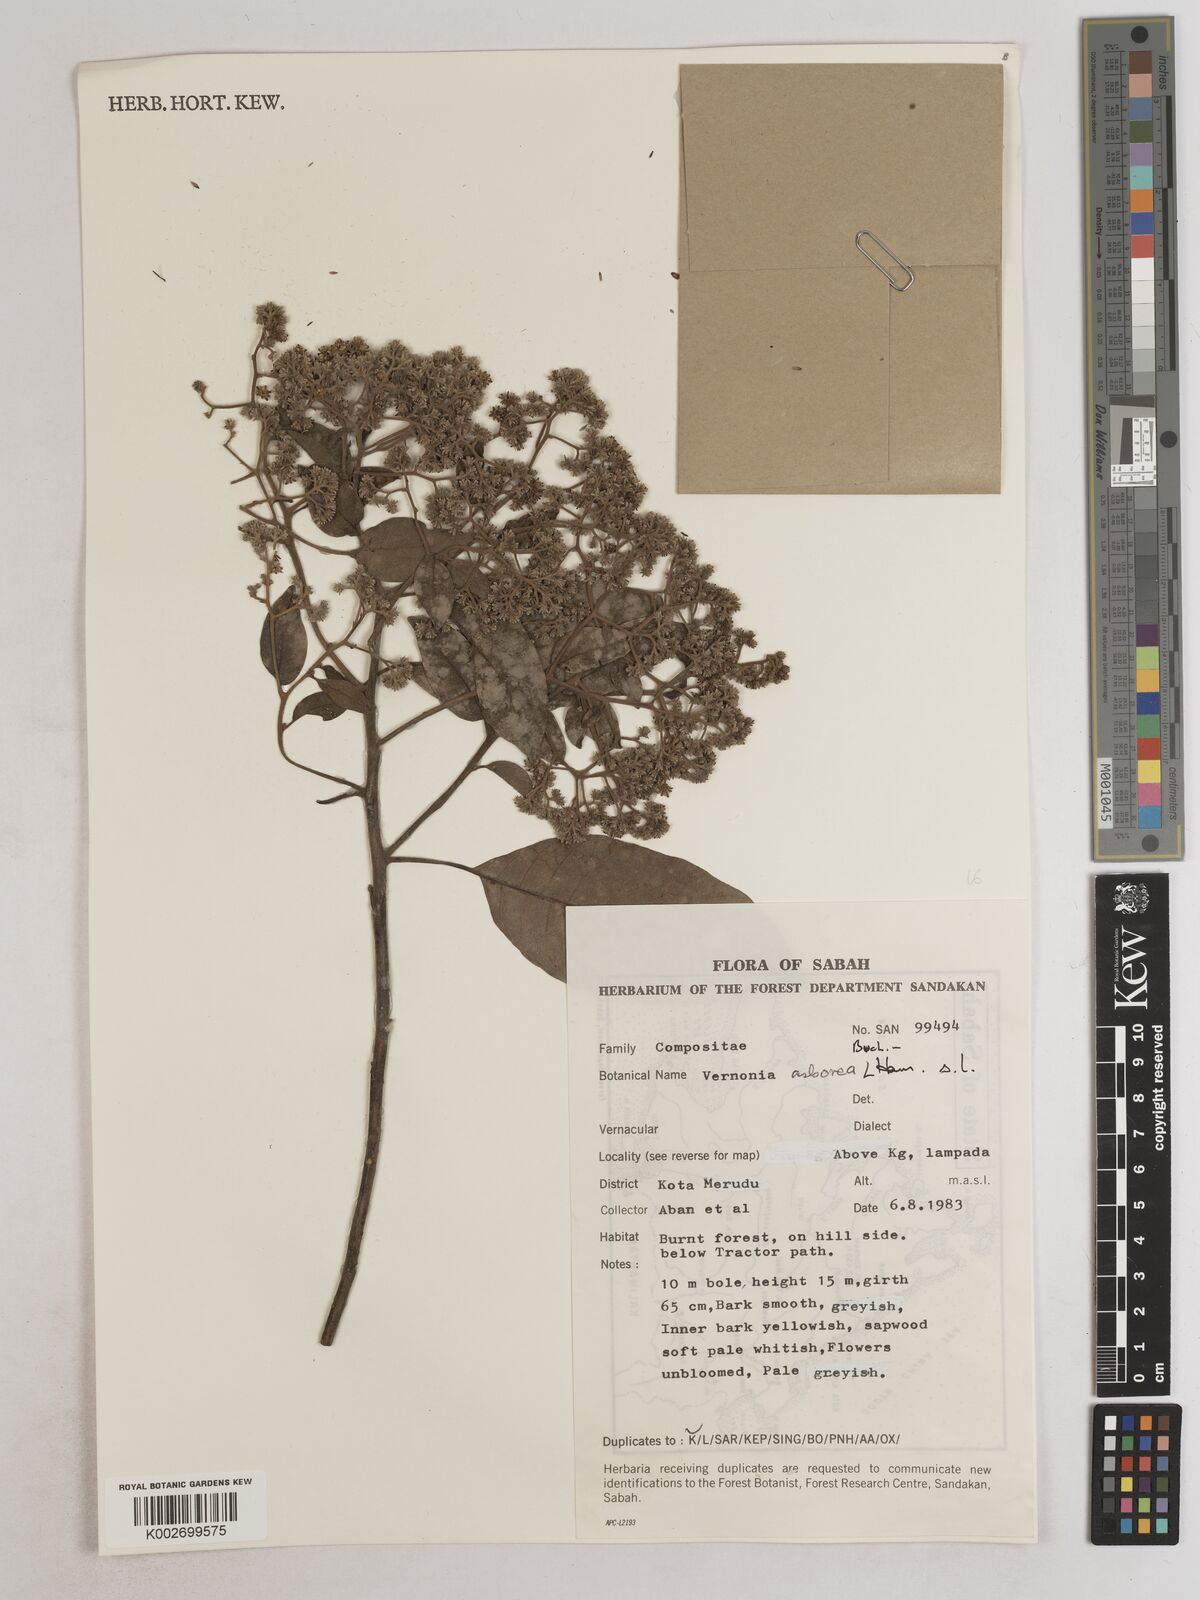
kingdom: Plantae
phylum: Tracheophyta
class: Magnoliopsida
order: Asterales
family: Asteraceae
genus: Strobocalyx
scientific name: Strobocalyx arborea
